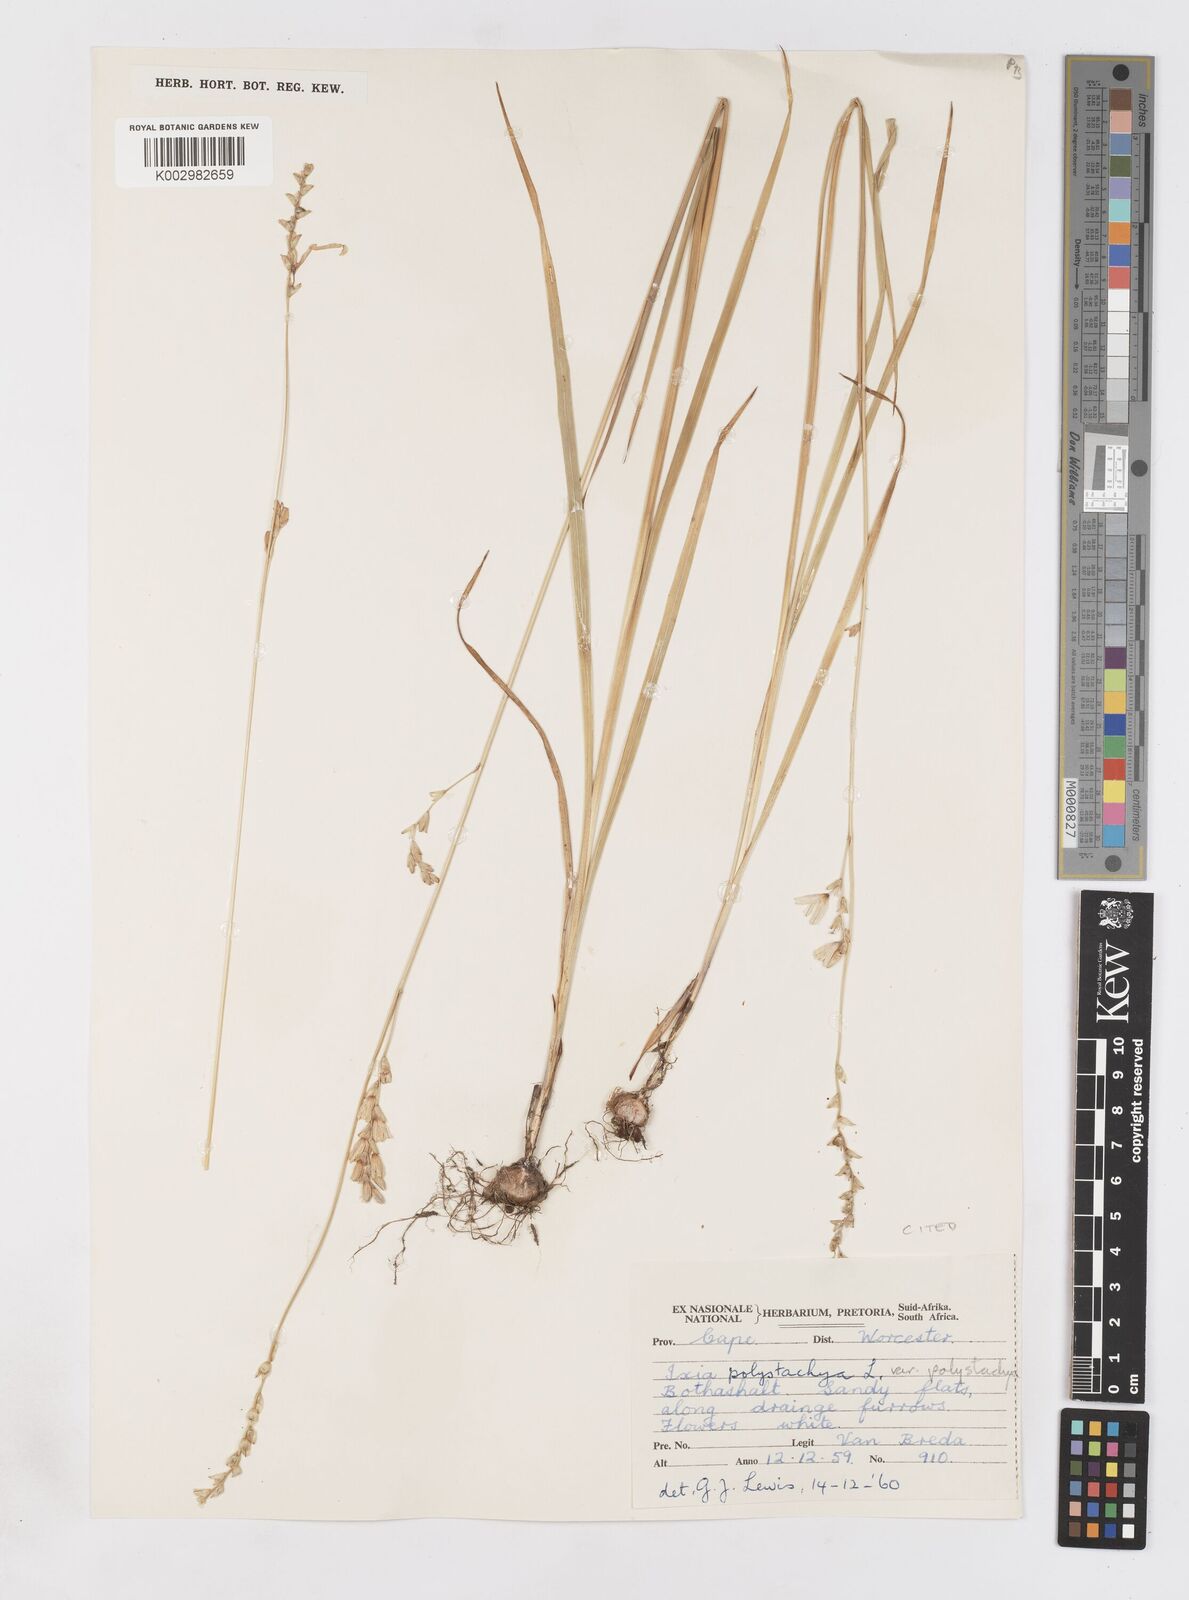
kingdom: Plantae
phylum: Tracheophyta
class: Liliopsida
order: Asparagales
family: Iridaceae
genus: Ixia
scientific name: Ixia polystachya
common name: White-and-yellow-flower cornlily
